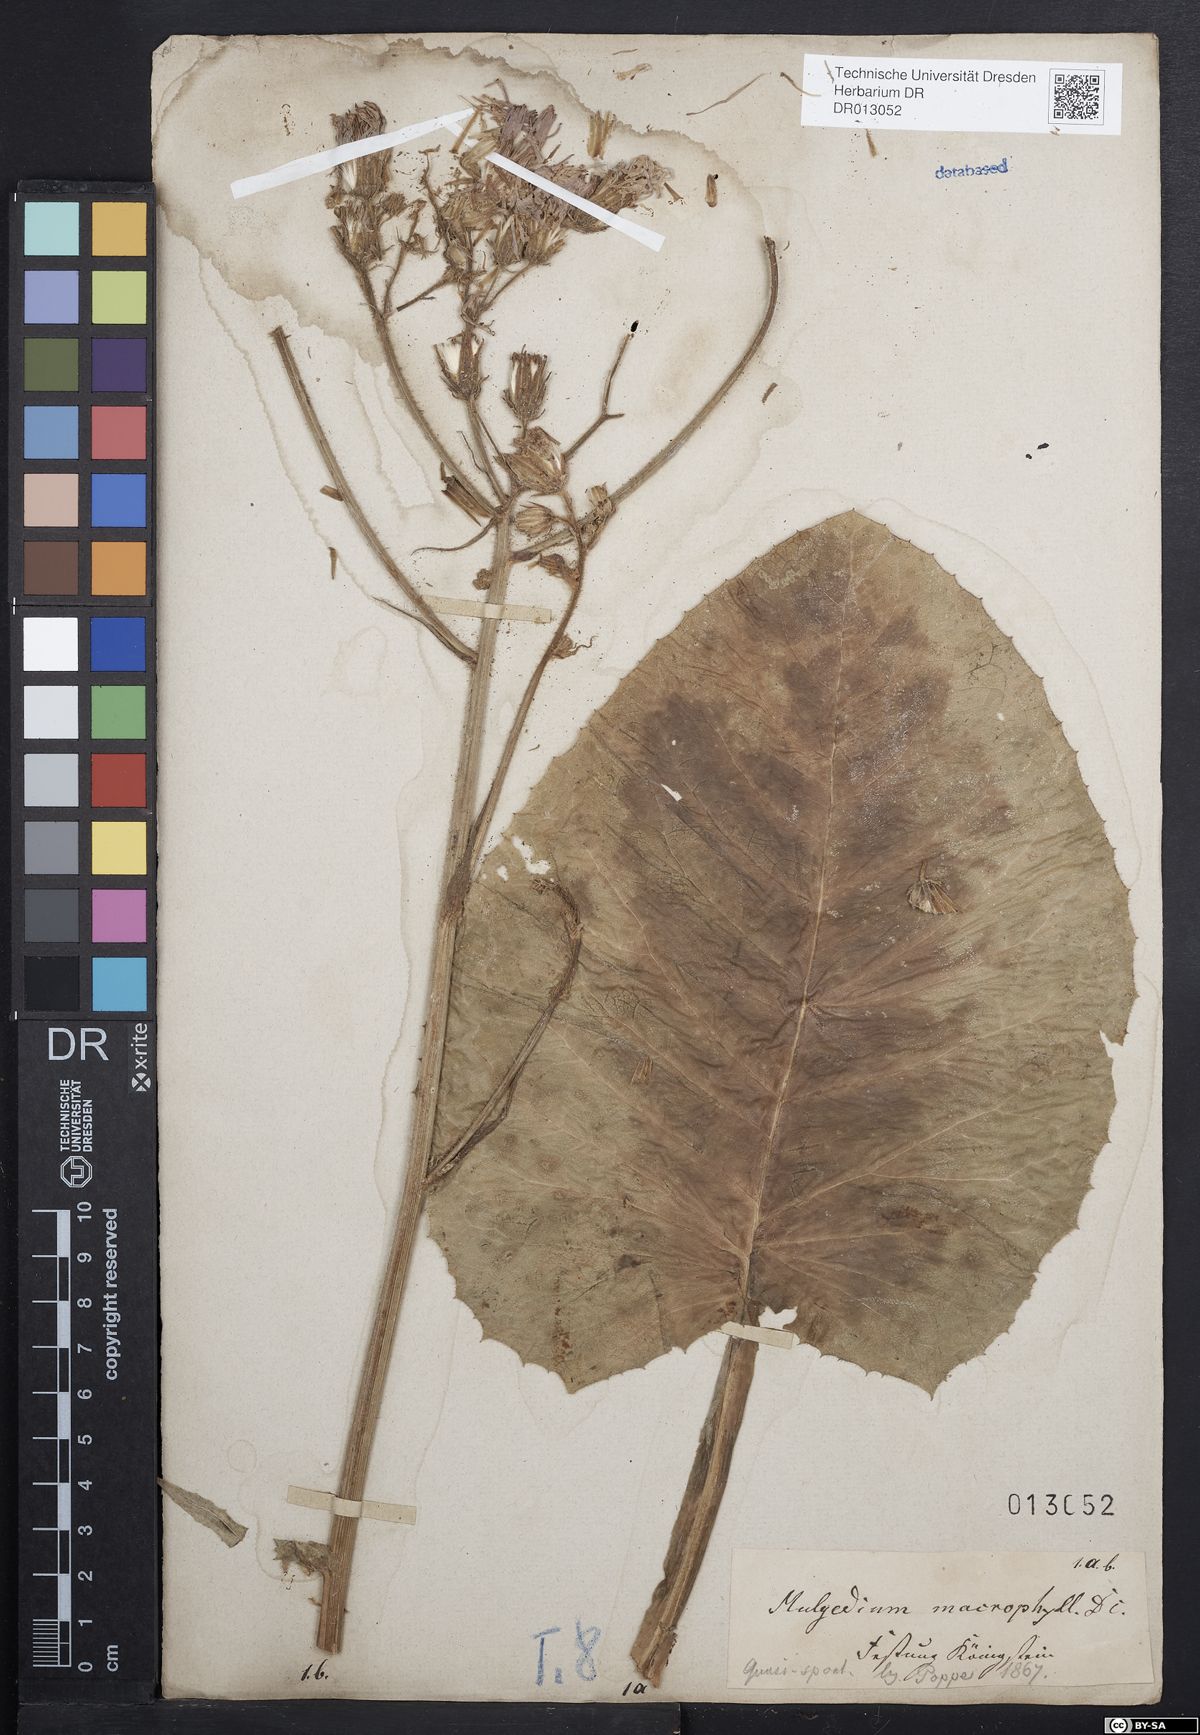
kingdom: Plantae
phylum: Tracheophyta
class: Magnoliopsida
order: Asterales
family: Asteraceae
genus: Lactuca
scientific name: Lactuca macrophylla
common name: Common blue-sow-thistle
